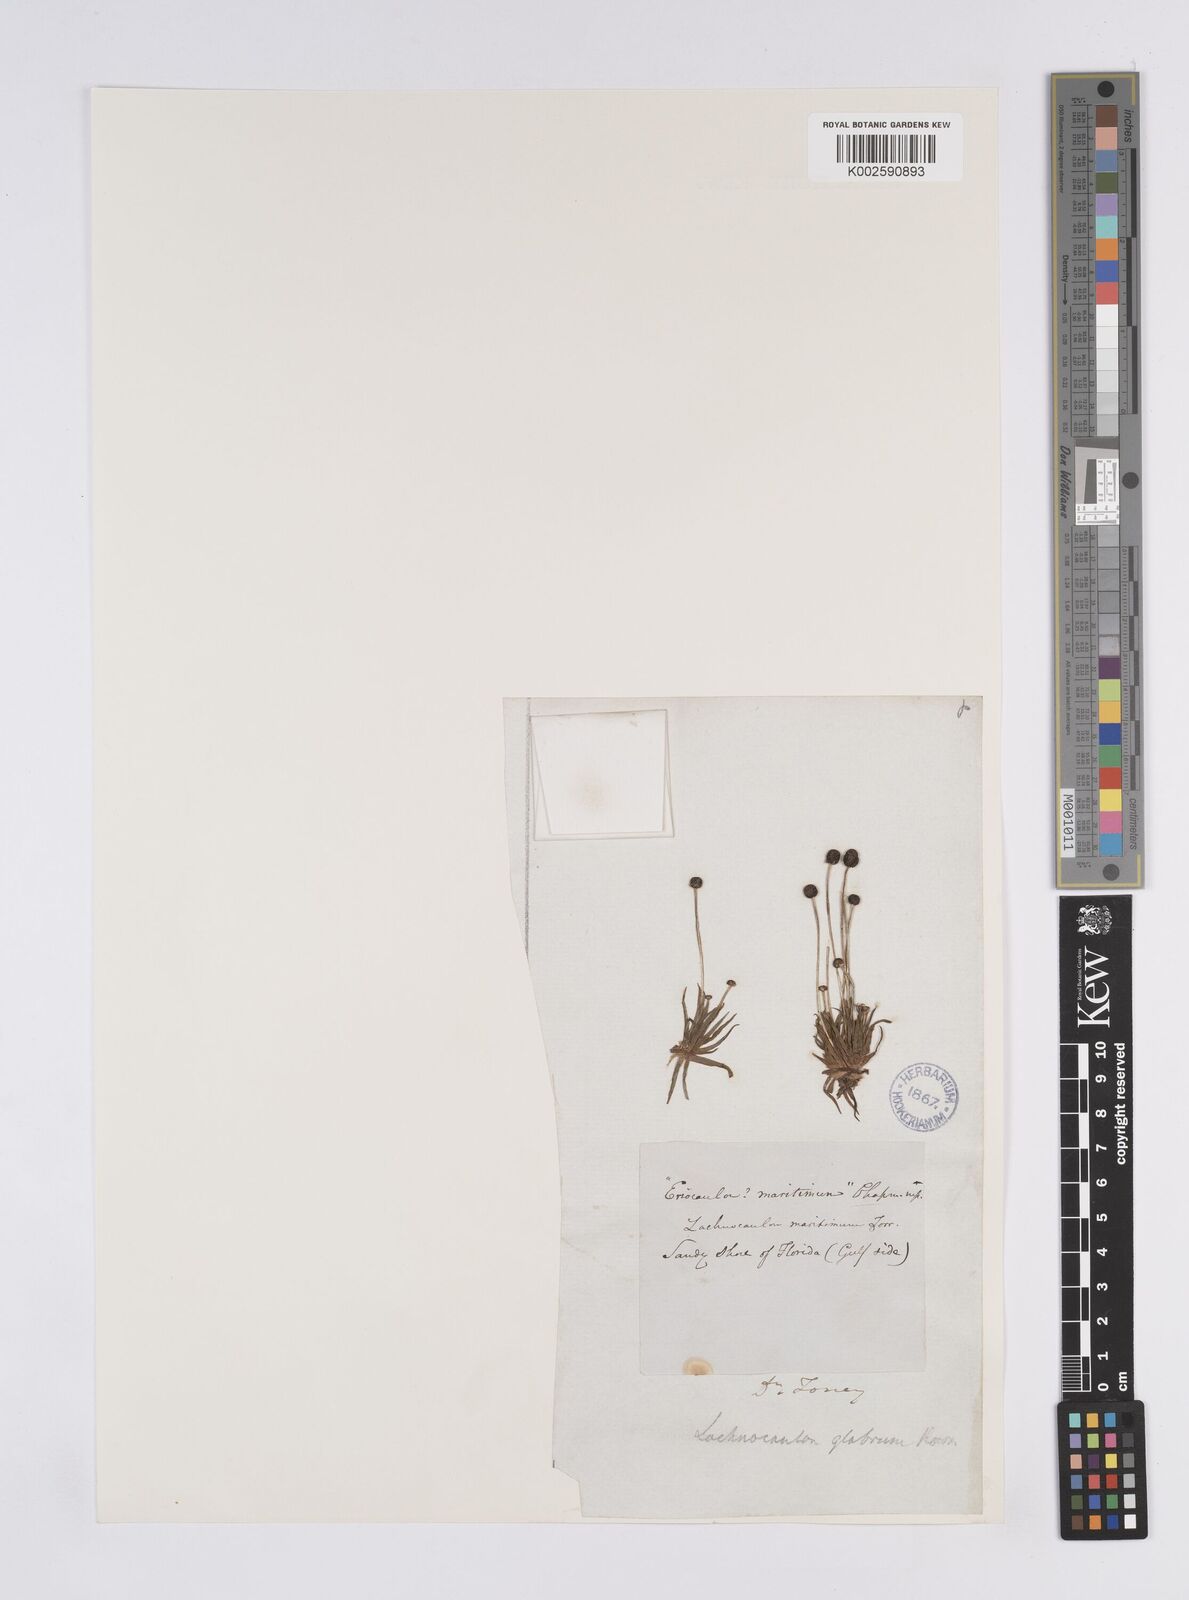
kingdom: Plantae
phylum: Tracheophyta
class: Liliopsida
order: Poales
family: Eriocaulaceae
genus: Paepalanthus
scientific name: Paepalanthus anceps
